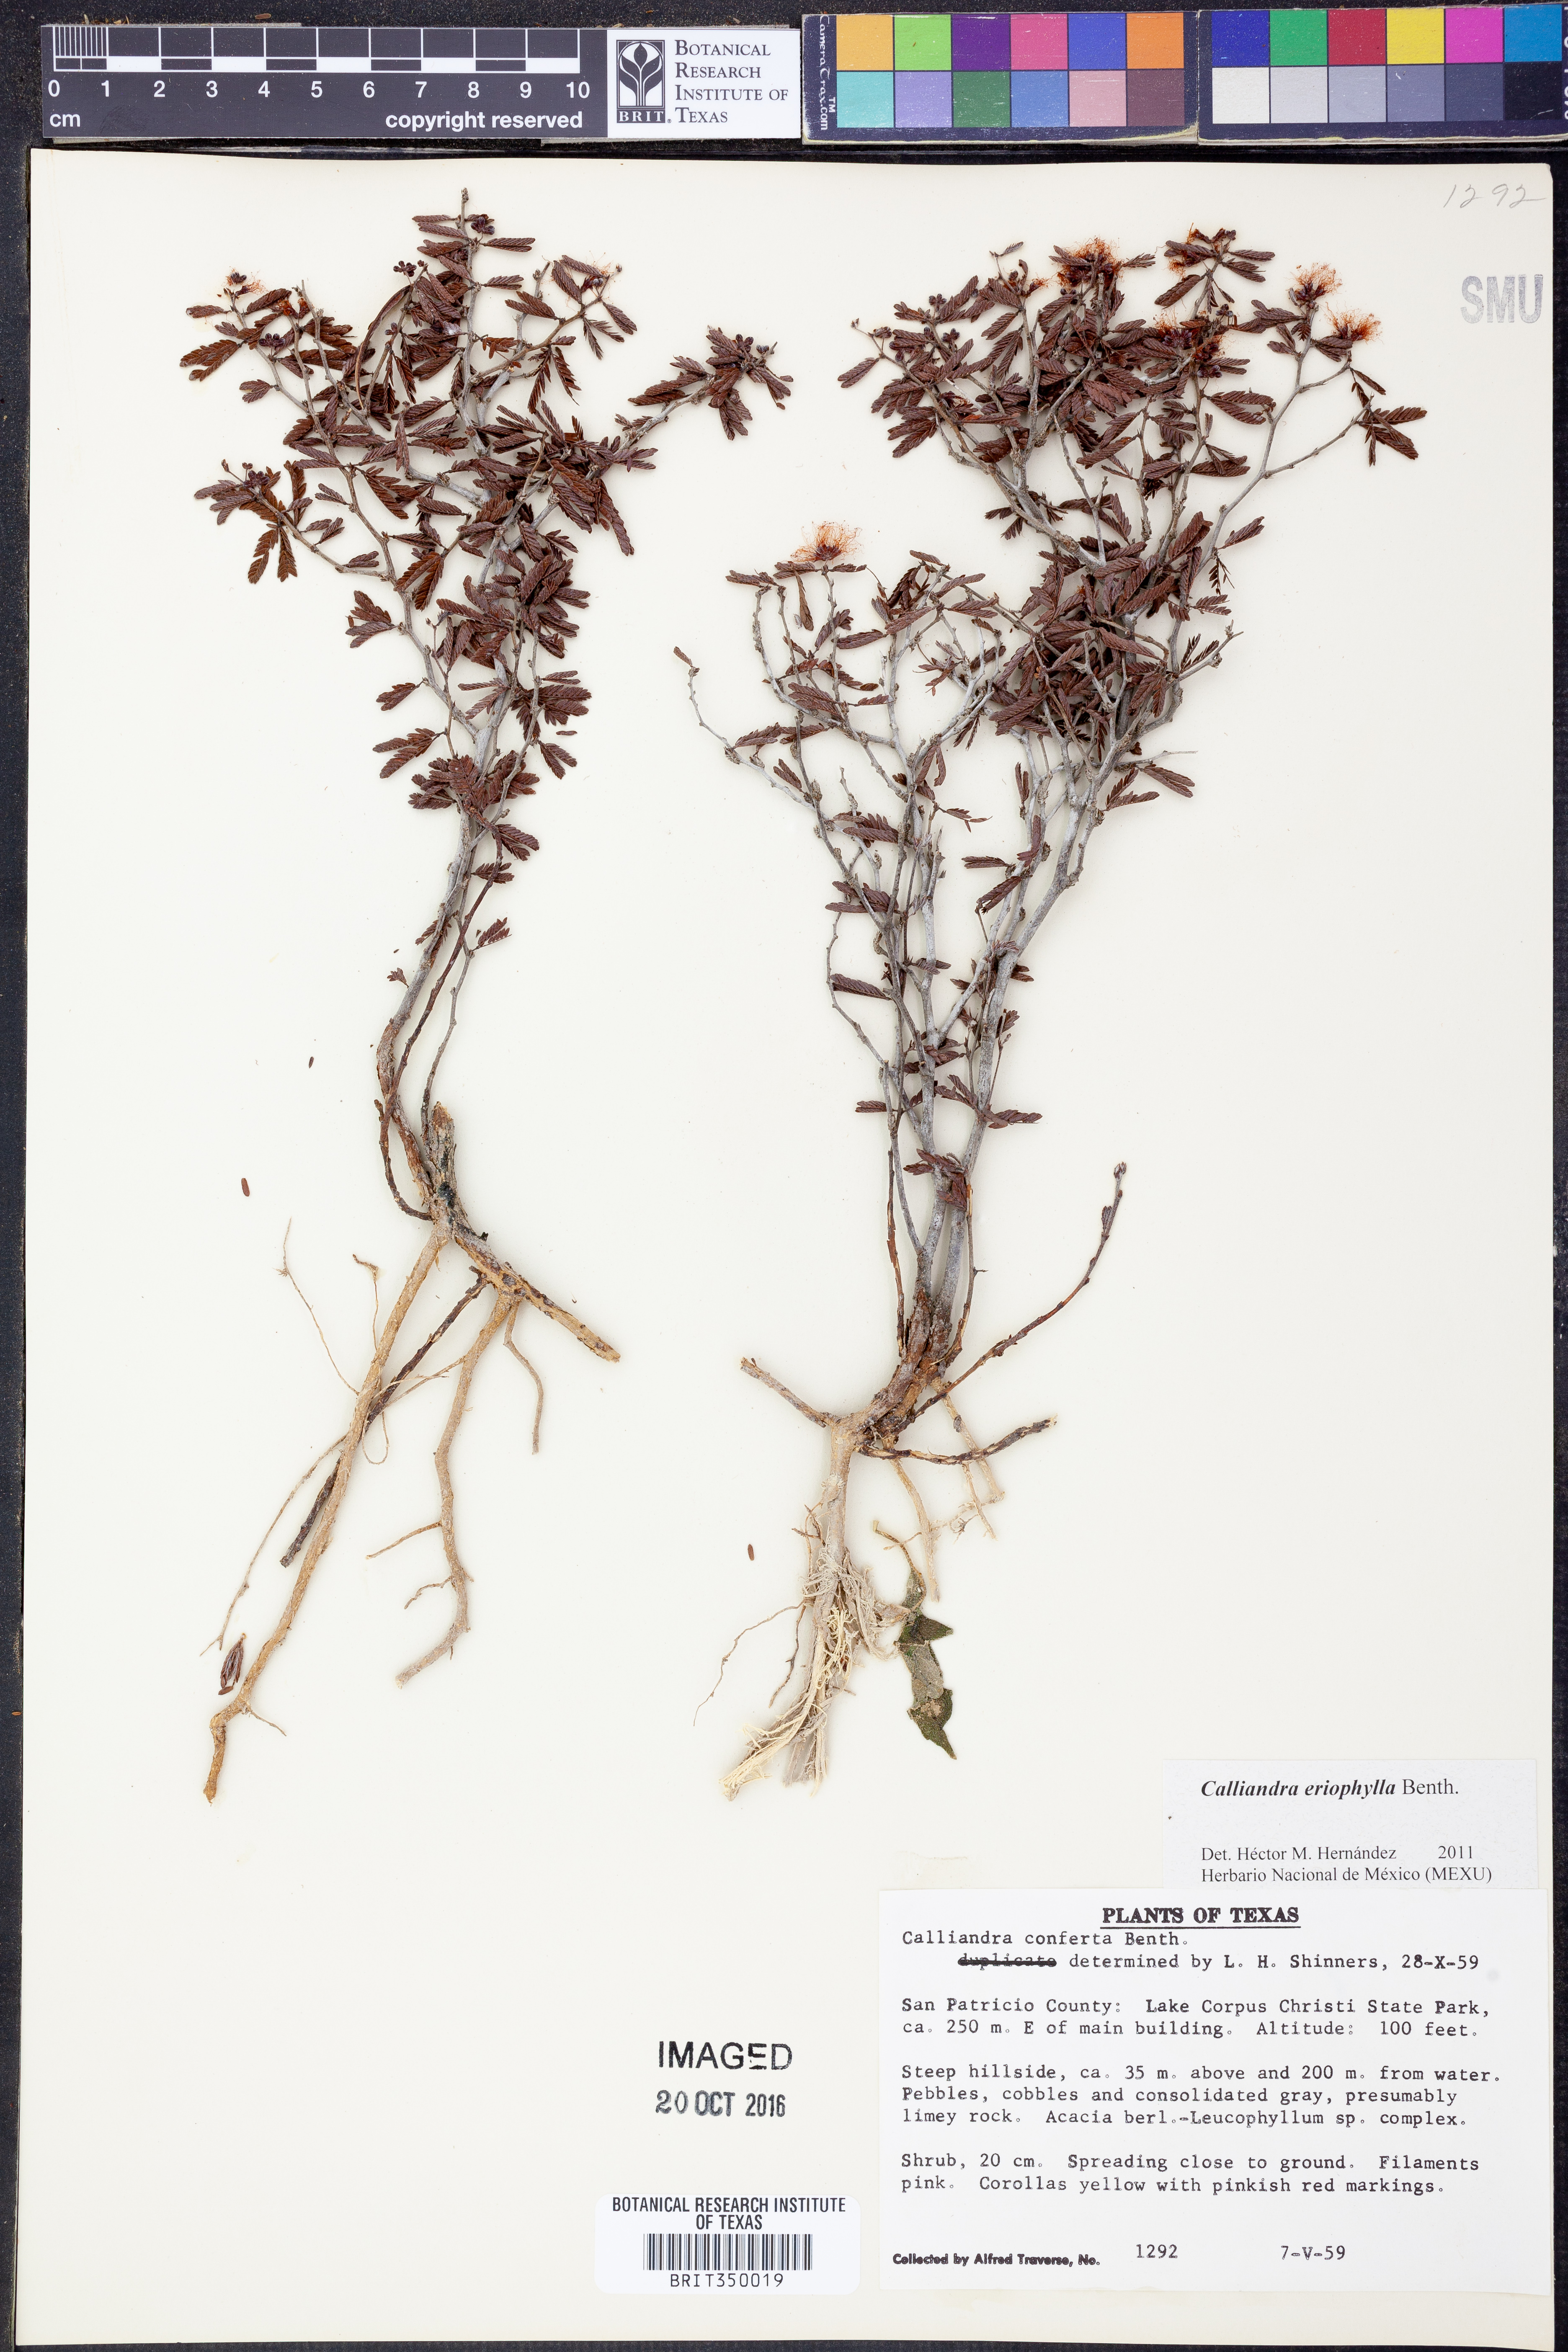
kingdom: Plantae
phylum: Tracheophyta
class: Magnoliopsida
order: Fabales
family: Fabaceae
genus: Calliandra
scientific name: Calliandra eriophylla
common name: Fairy-duster
